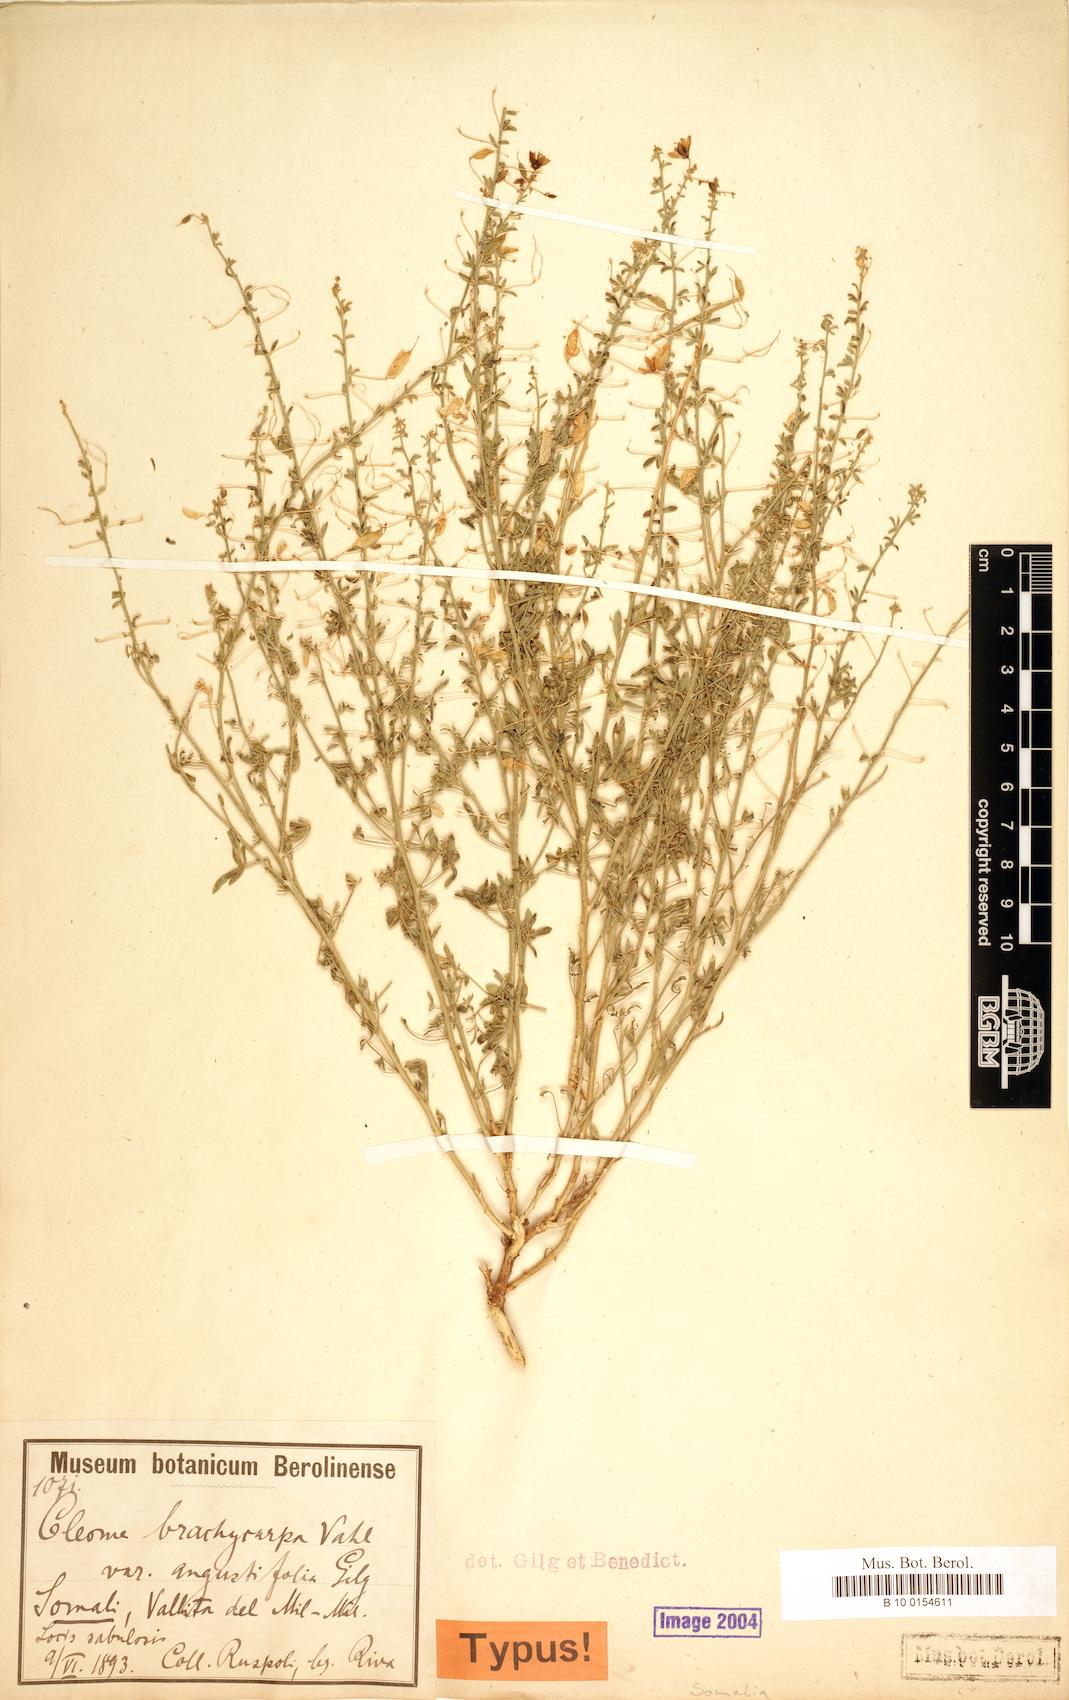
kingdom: Plantae
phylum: Tracheophyta
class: Magnoliopsida
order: Brassicales
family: Cleomaceae
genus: Stylidocleome
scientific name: Stylidocleome brachycarpa
